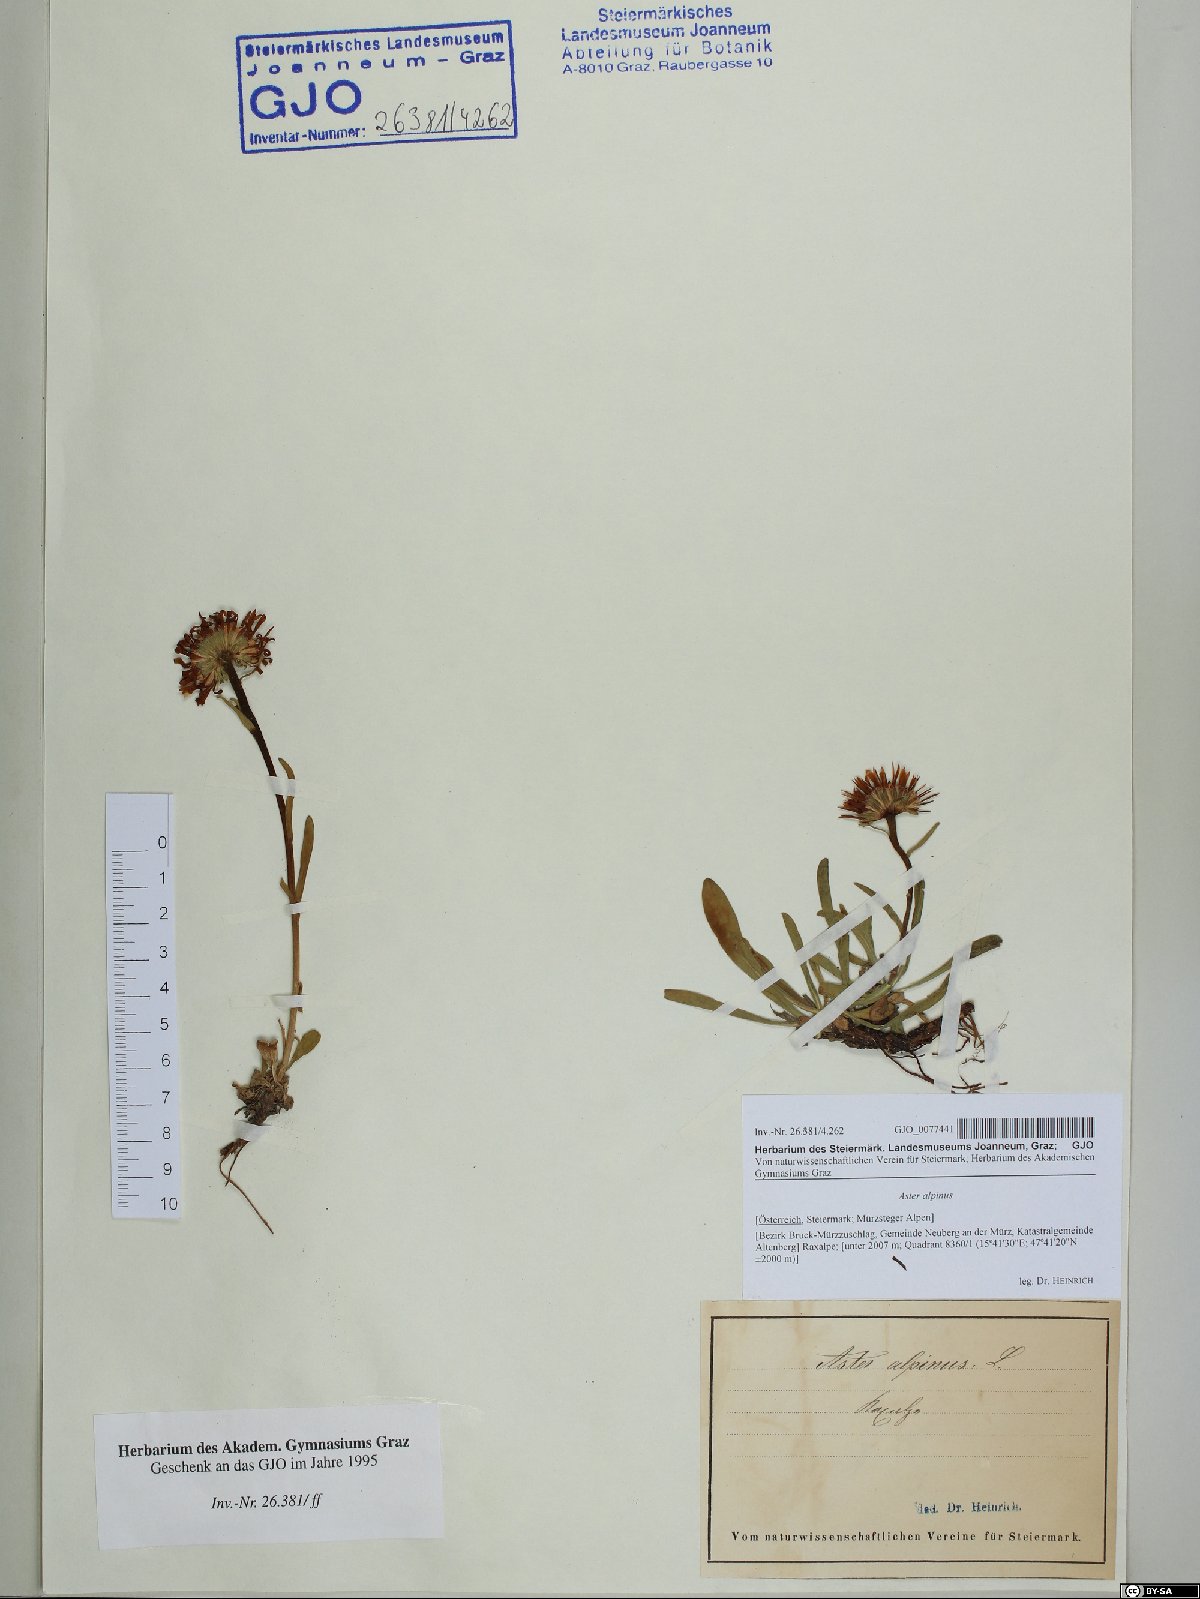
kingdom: Plantae
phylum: Tracheophyta
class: Magnoliopsida
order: Asterales
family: Asteraceae
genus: Aster
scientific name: Aster alpinus
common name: Alpine aster
